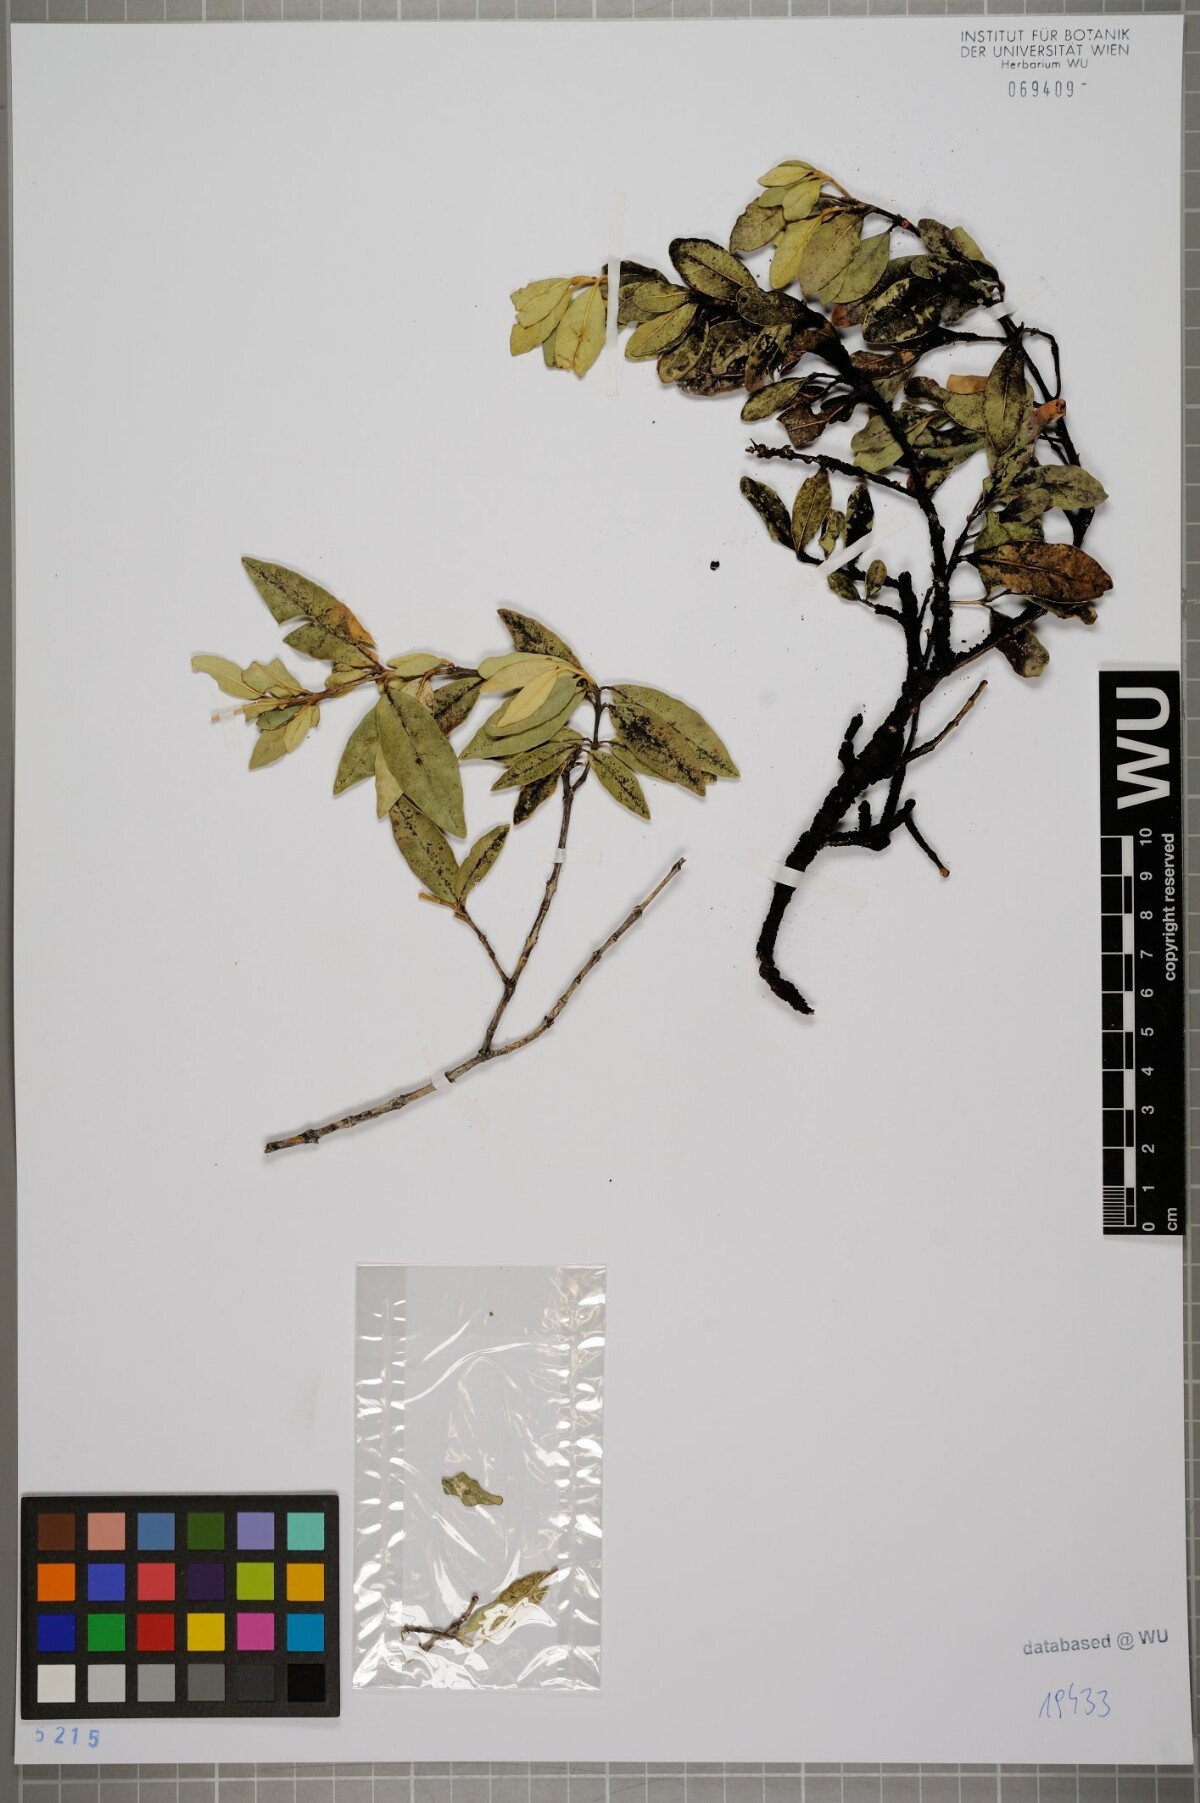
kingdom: Plantae
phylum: Tracheophyta
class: Magnoliopsida
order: Myrtales
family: Myrtaceae
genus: Myrceugenia
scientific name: Myrceugenia schulzei
